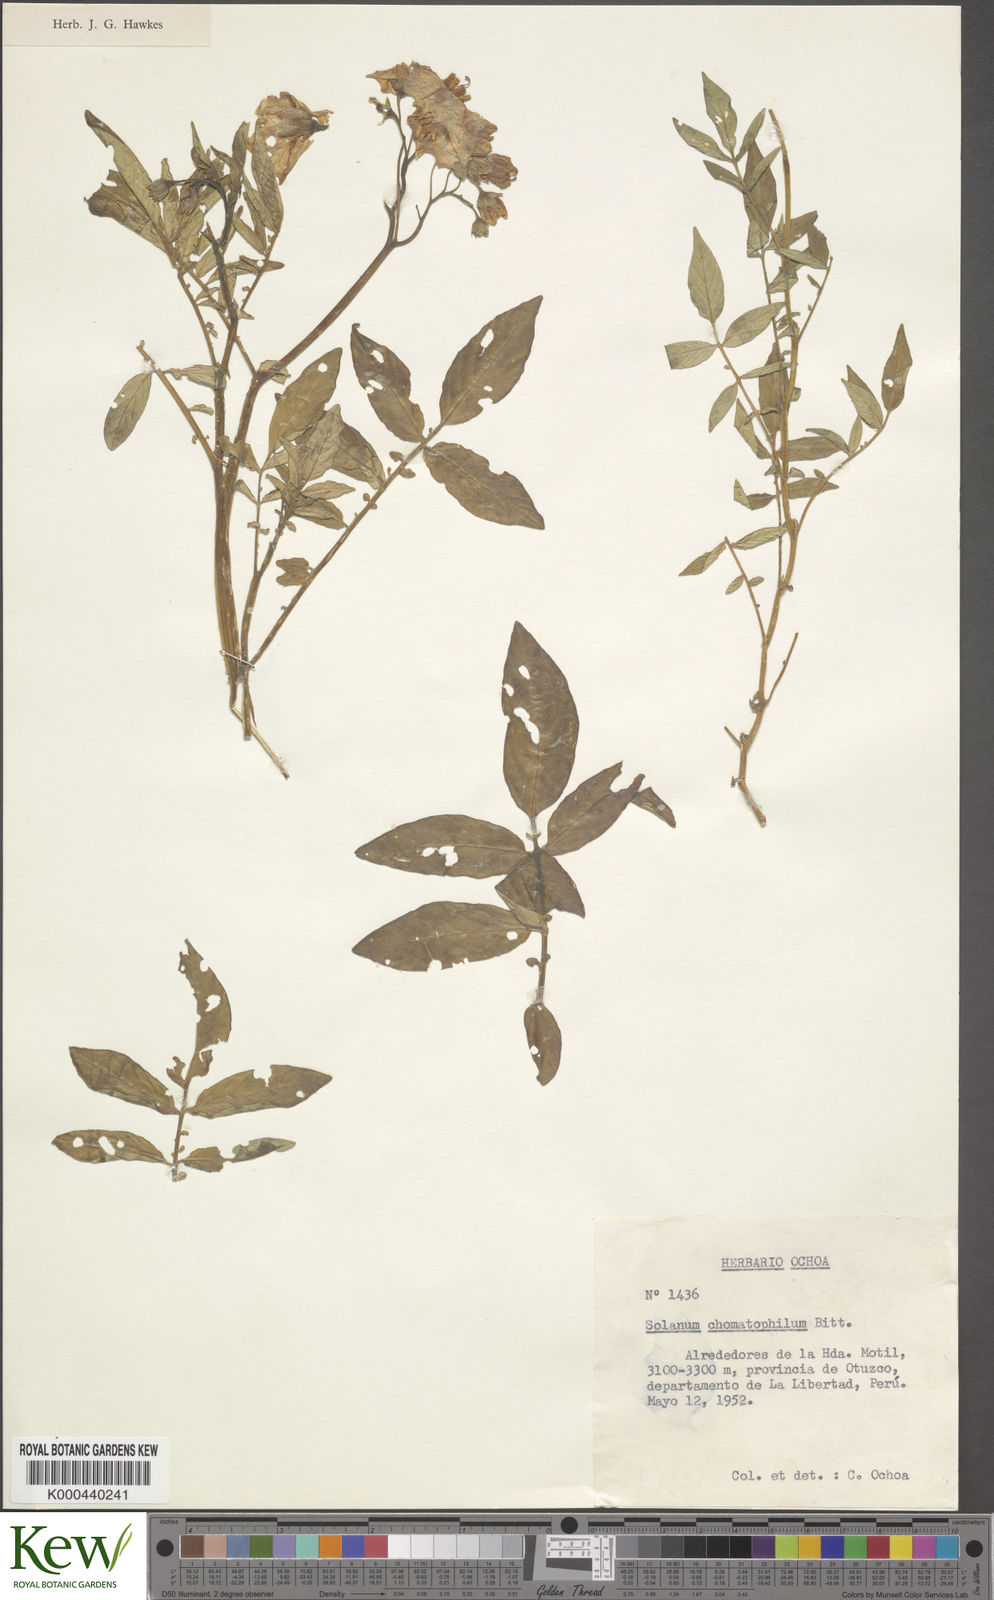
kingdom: Plantae
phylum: Tracheophyta
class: Magnoliopsida
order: Solanales
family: Solanaceae
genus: Solanum
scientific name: Solanum chomatophilum
